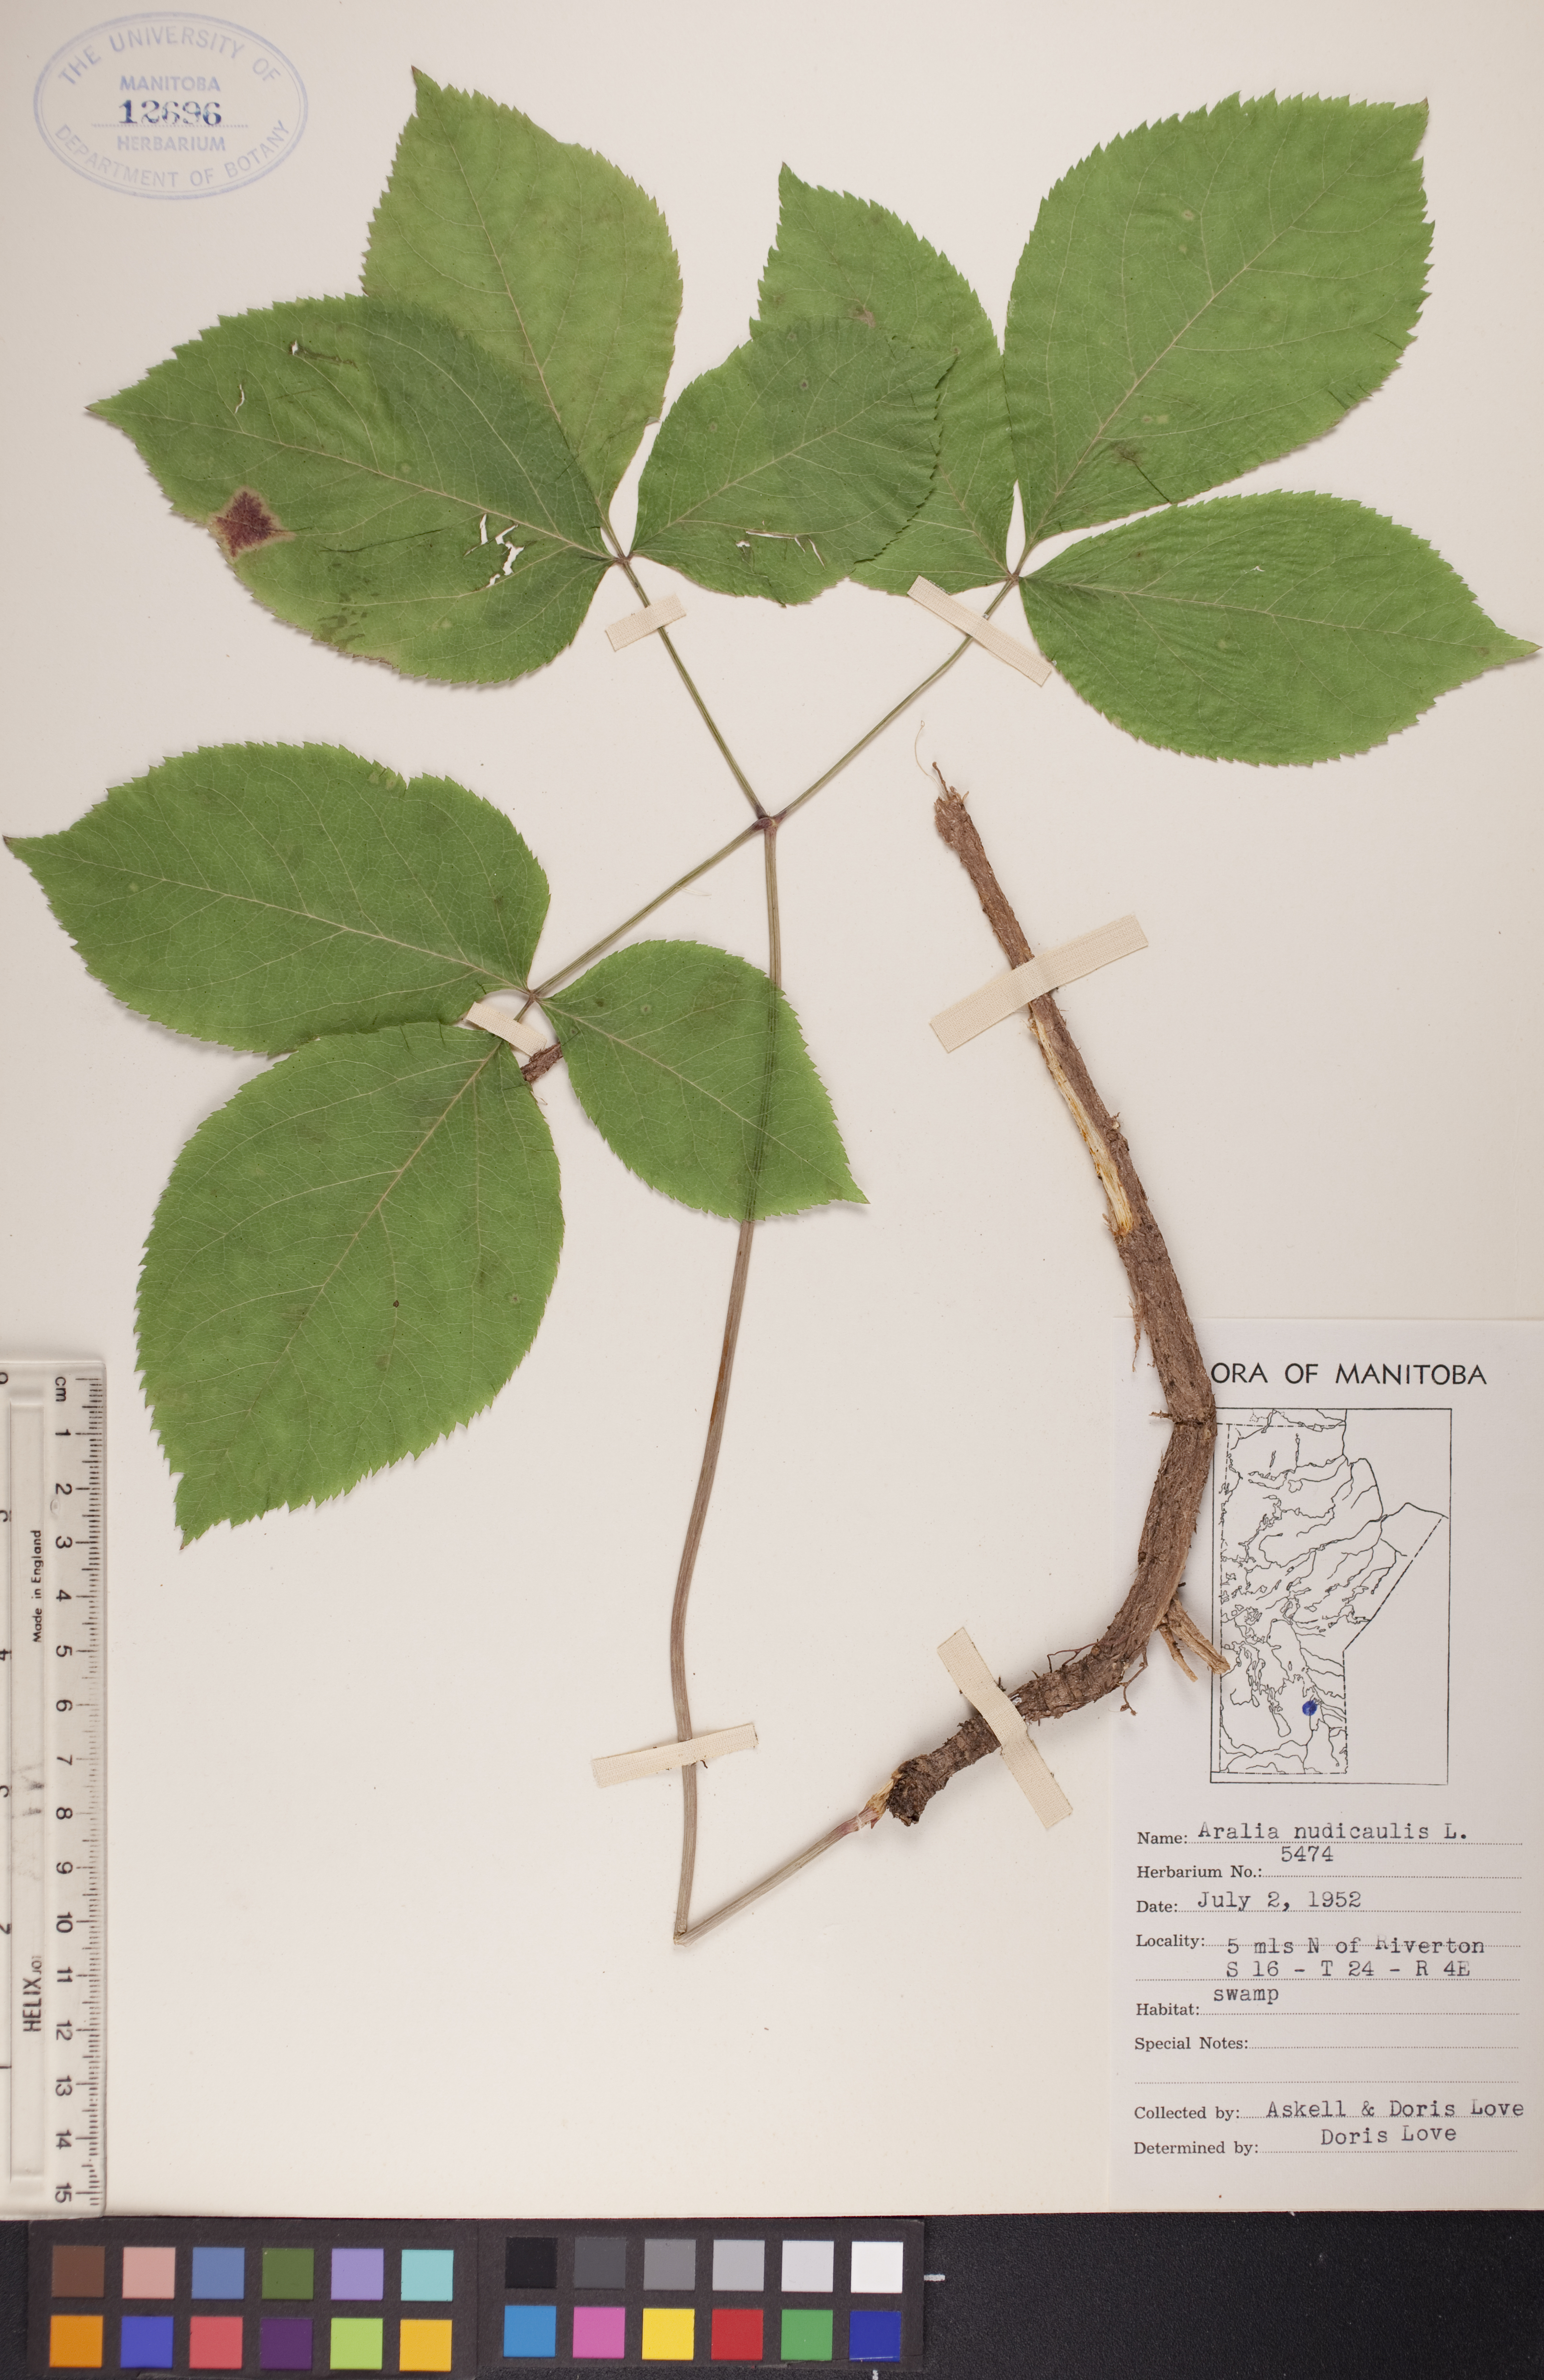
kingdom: Plantae
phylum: Tracheophyta
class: Magnoliopsida
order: Apiales
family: Araliaceae
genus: Aralia
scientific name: Aralia nudicaulis
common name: Wild sarsaparilla
